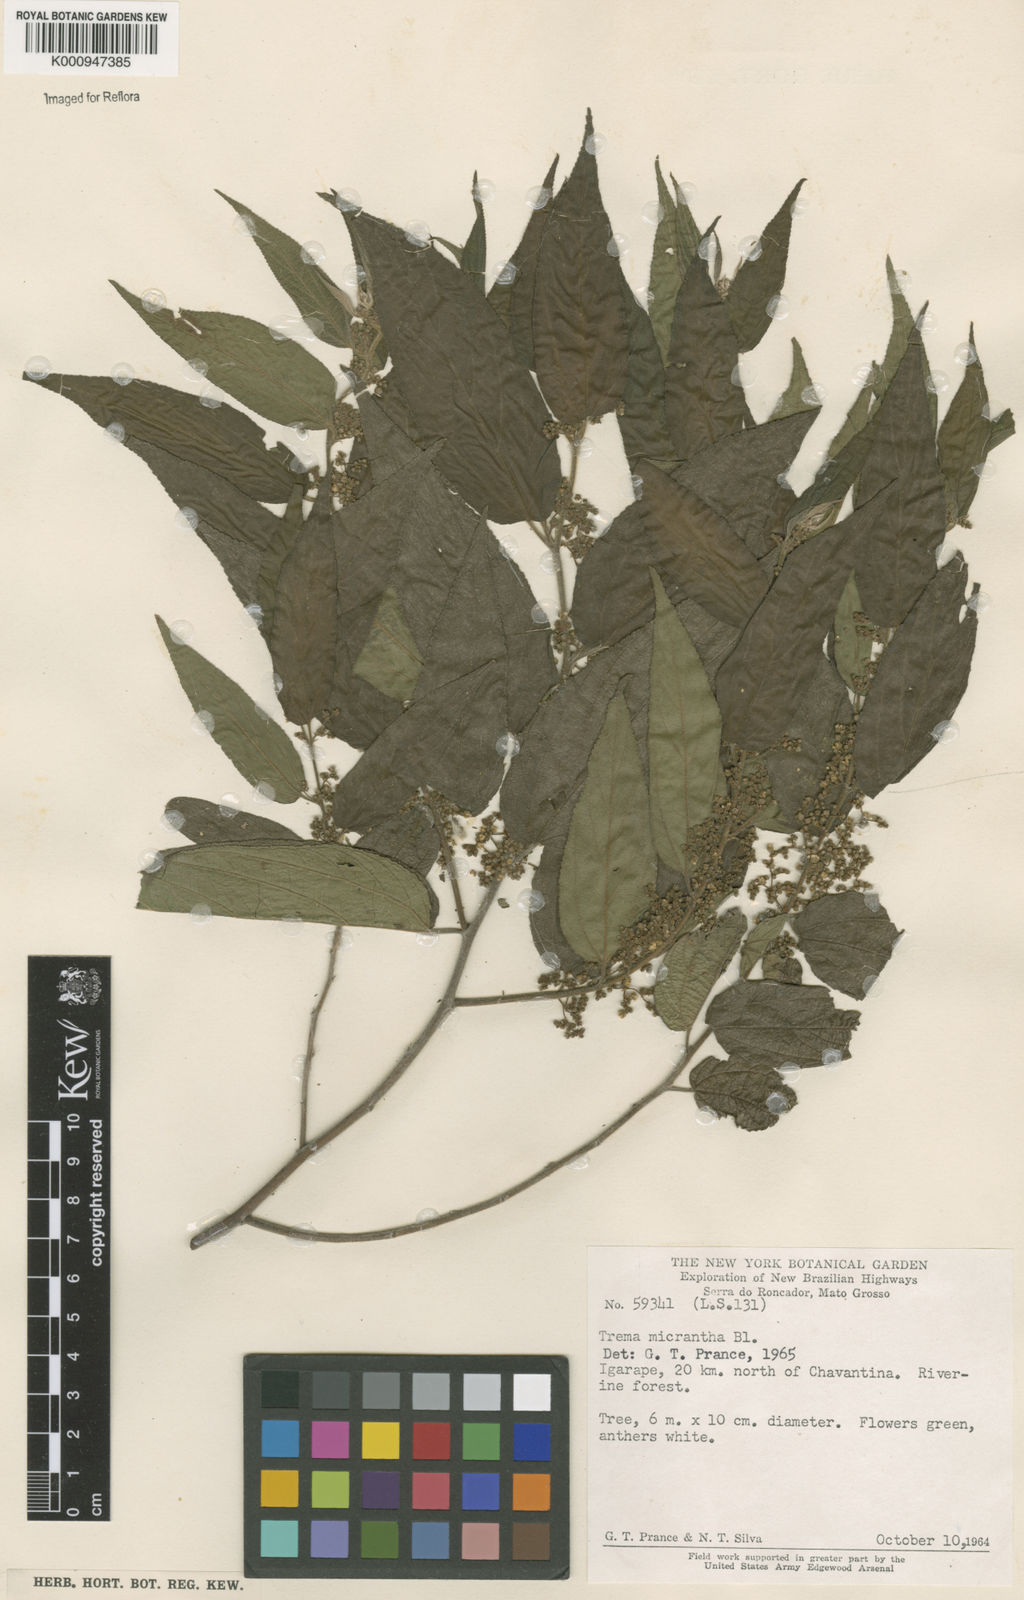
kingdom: Plantae
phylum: Tracheophyta
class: Magnoliopsida
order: Rosales
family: Cannabaceae
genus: Trema
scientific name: Trema micranthum
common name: Jamaican nettletree
